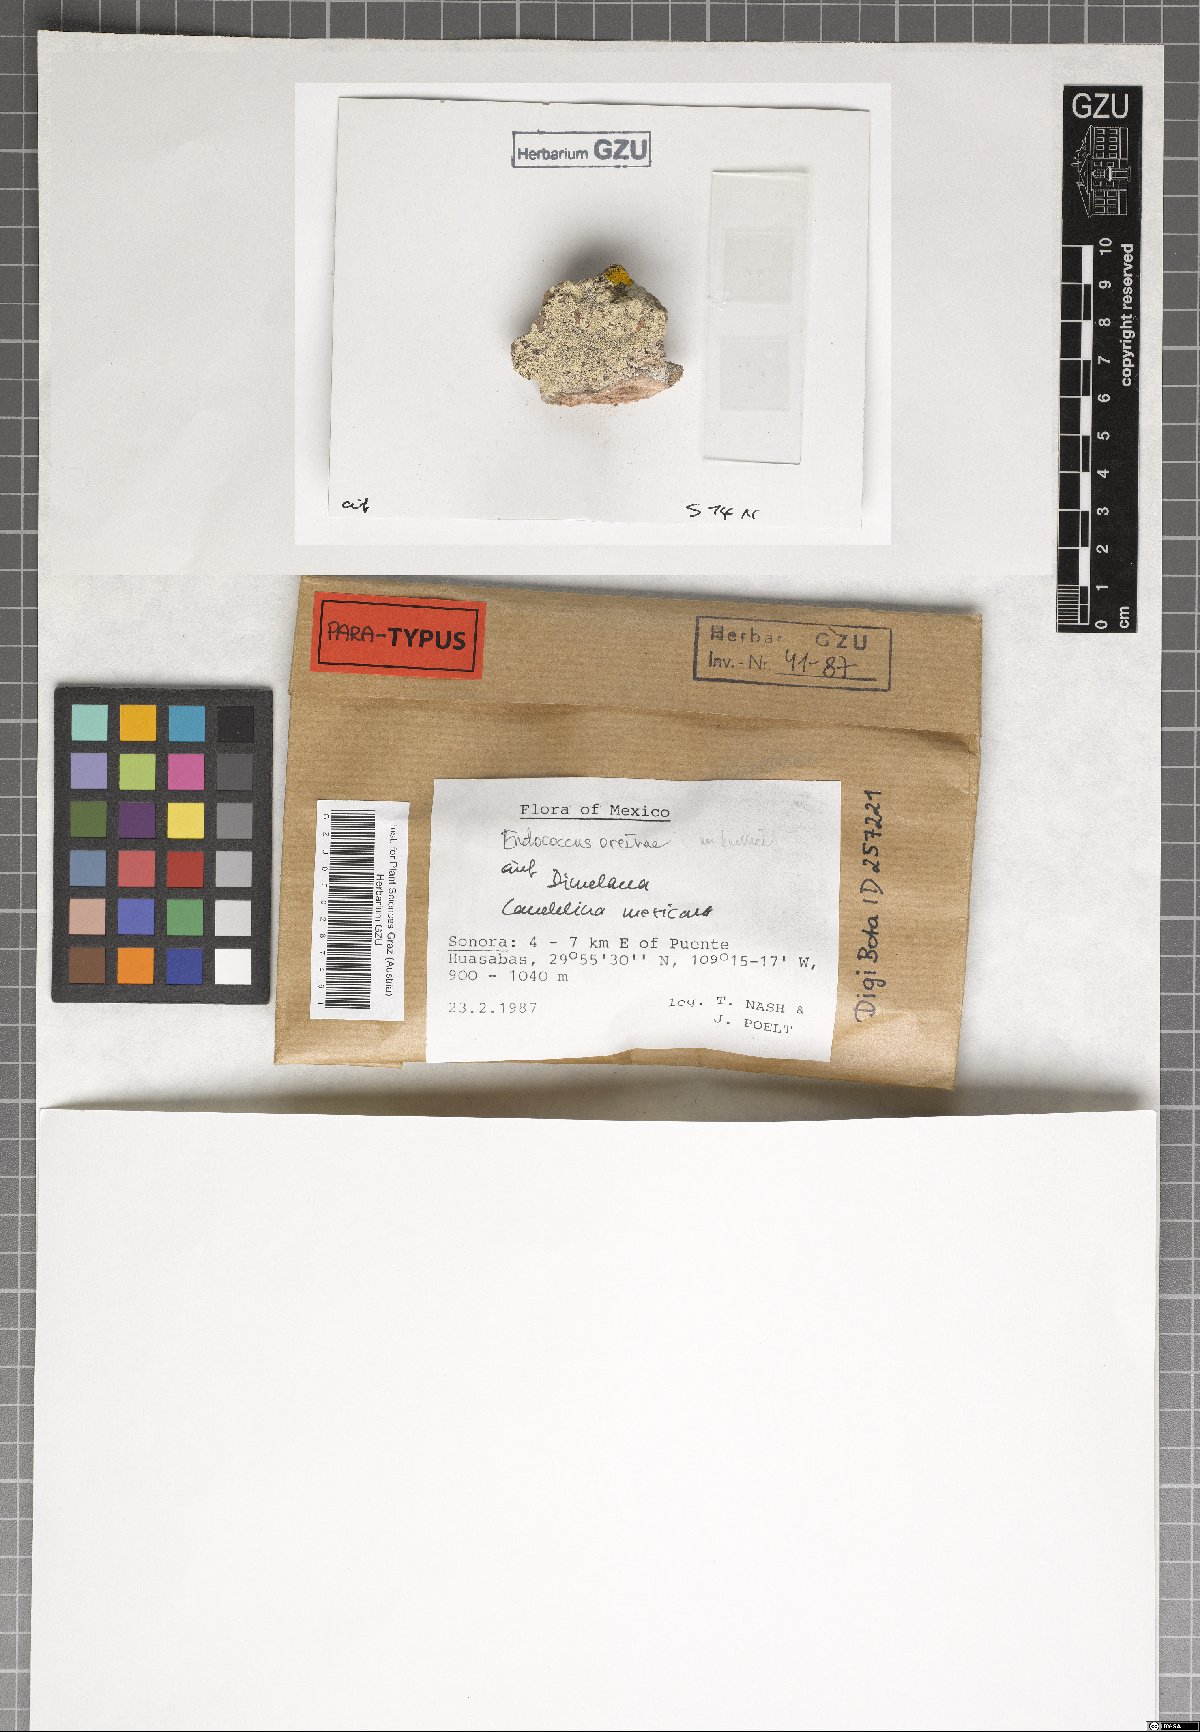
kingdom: Fungi
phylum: Ascomycota
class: Dothideomycetes
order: Dothideales
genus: Endococcus
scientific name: Endococcus oreinae
